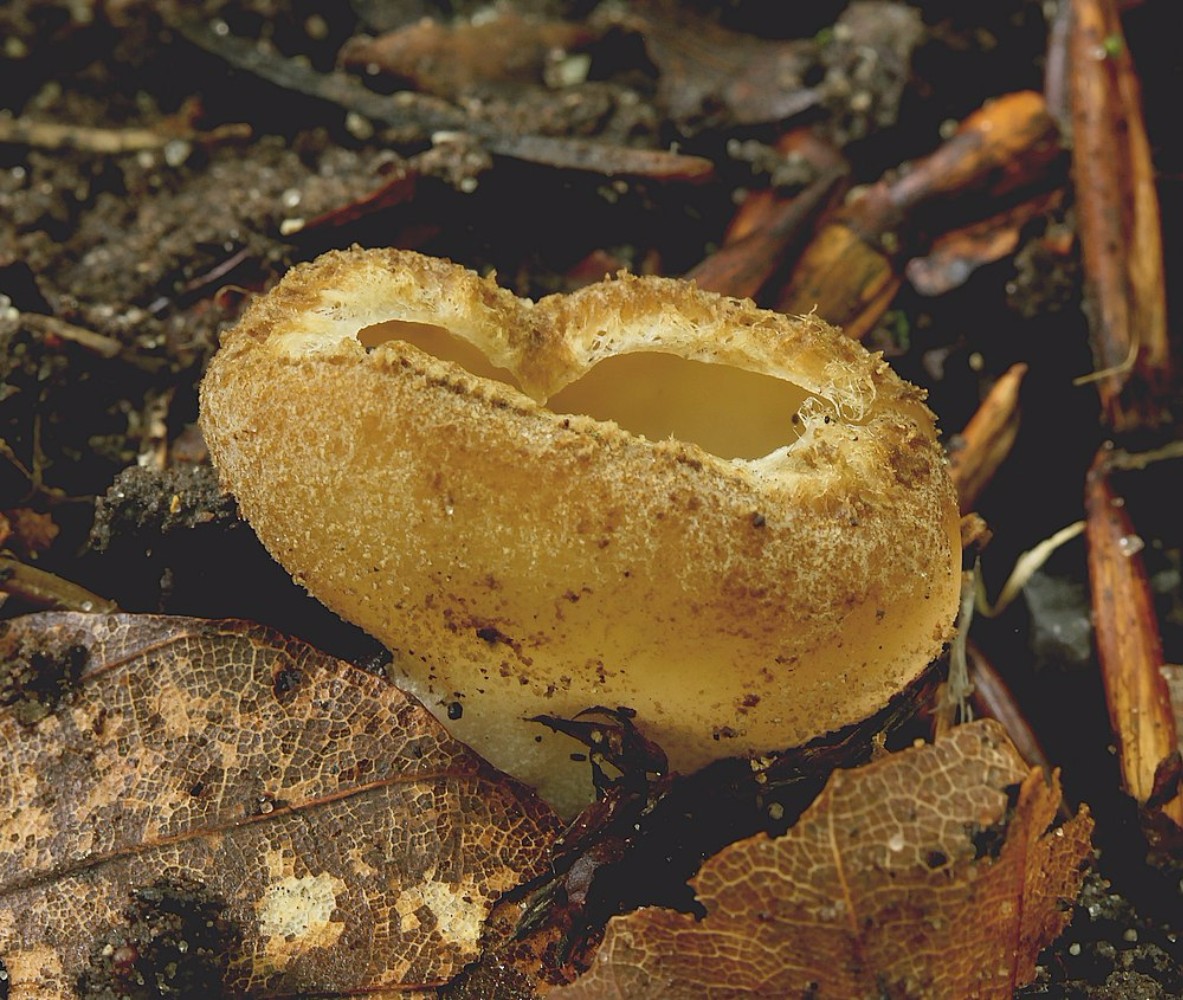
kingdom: Fungi
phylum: Ascomycota
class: Pezizomycetes
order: Pezizales
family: Pyronemataceae
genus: Tarzetta
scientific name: Tarzetta cupularis
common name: gulbrun pokalbæger
